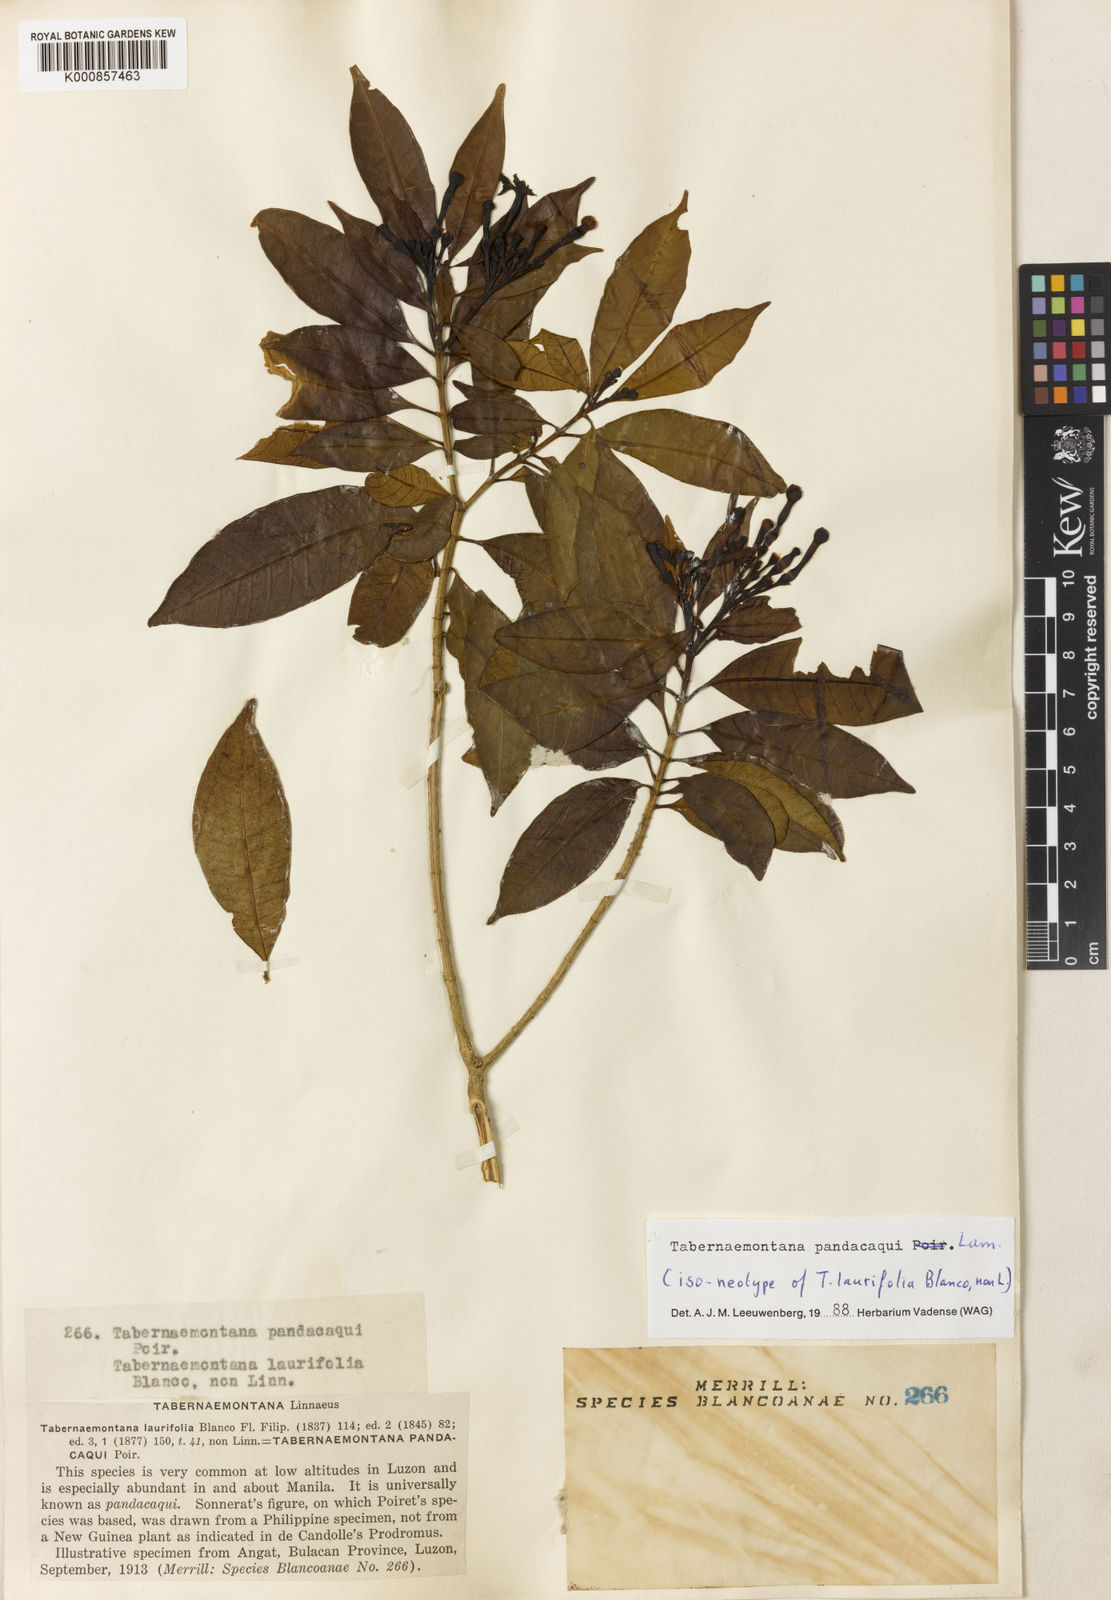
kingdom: Plantae
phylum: Tracheophyta
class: Magnoliopsida
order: Gentianales
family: Apocynaceae
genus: Tabernaemontana
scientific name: Tabernaemontana
